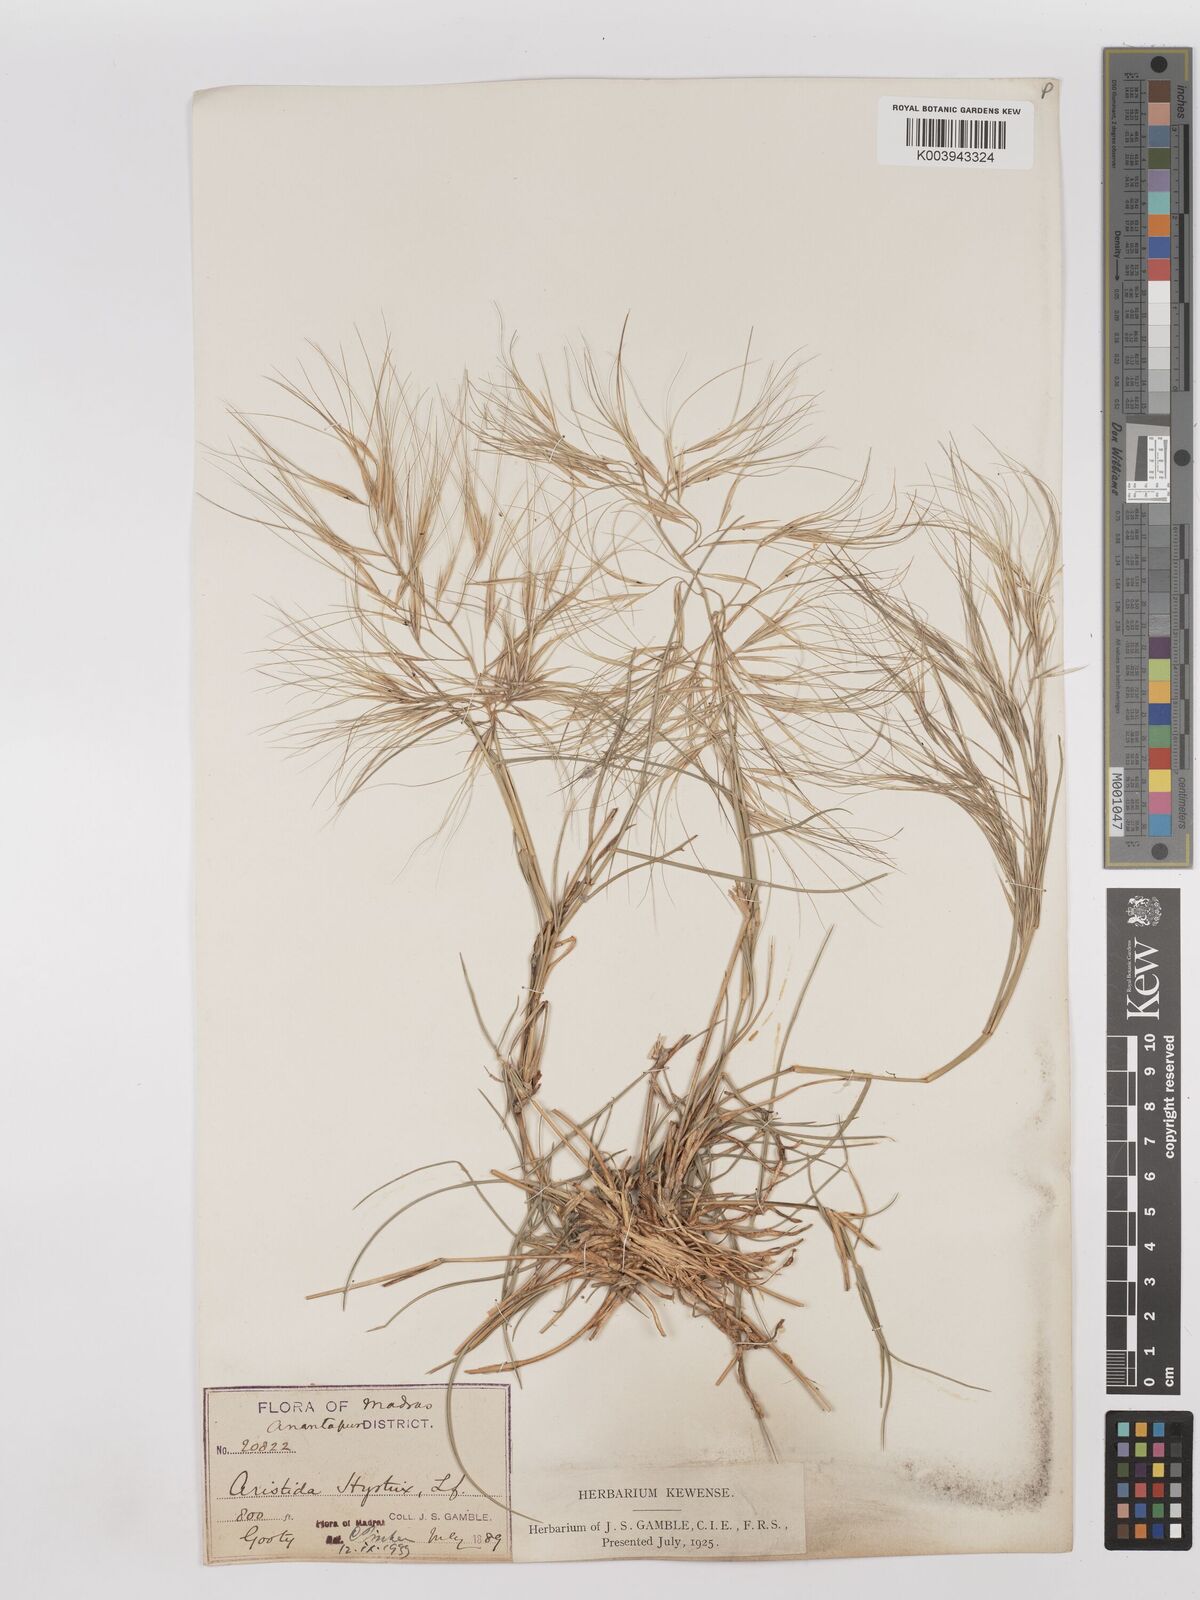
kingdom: Plantae
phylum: Tracheophyta
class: Liliopsida
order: Poales
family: Poaceae
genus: Aristida
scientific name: Aristida hystrix
